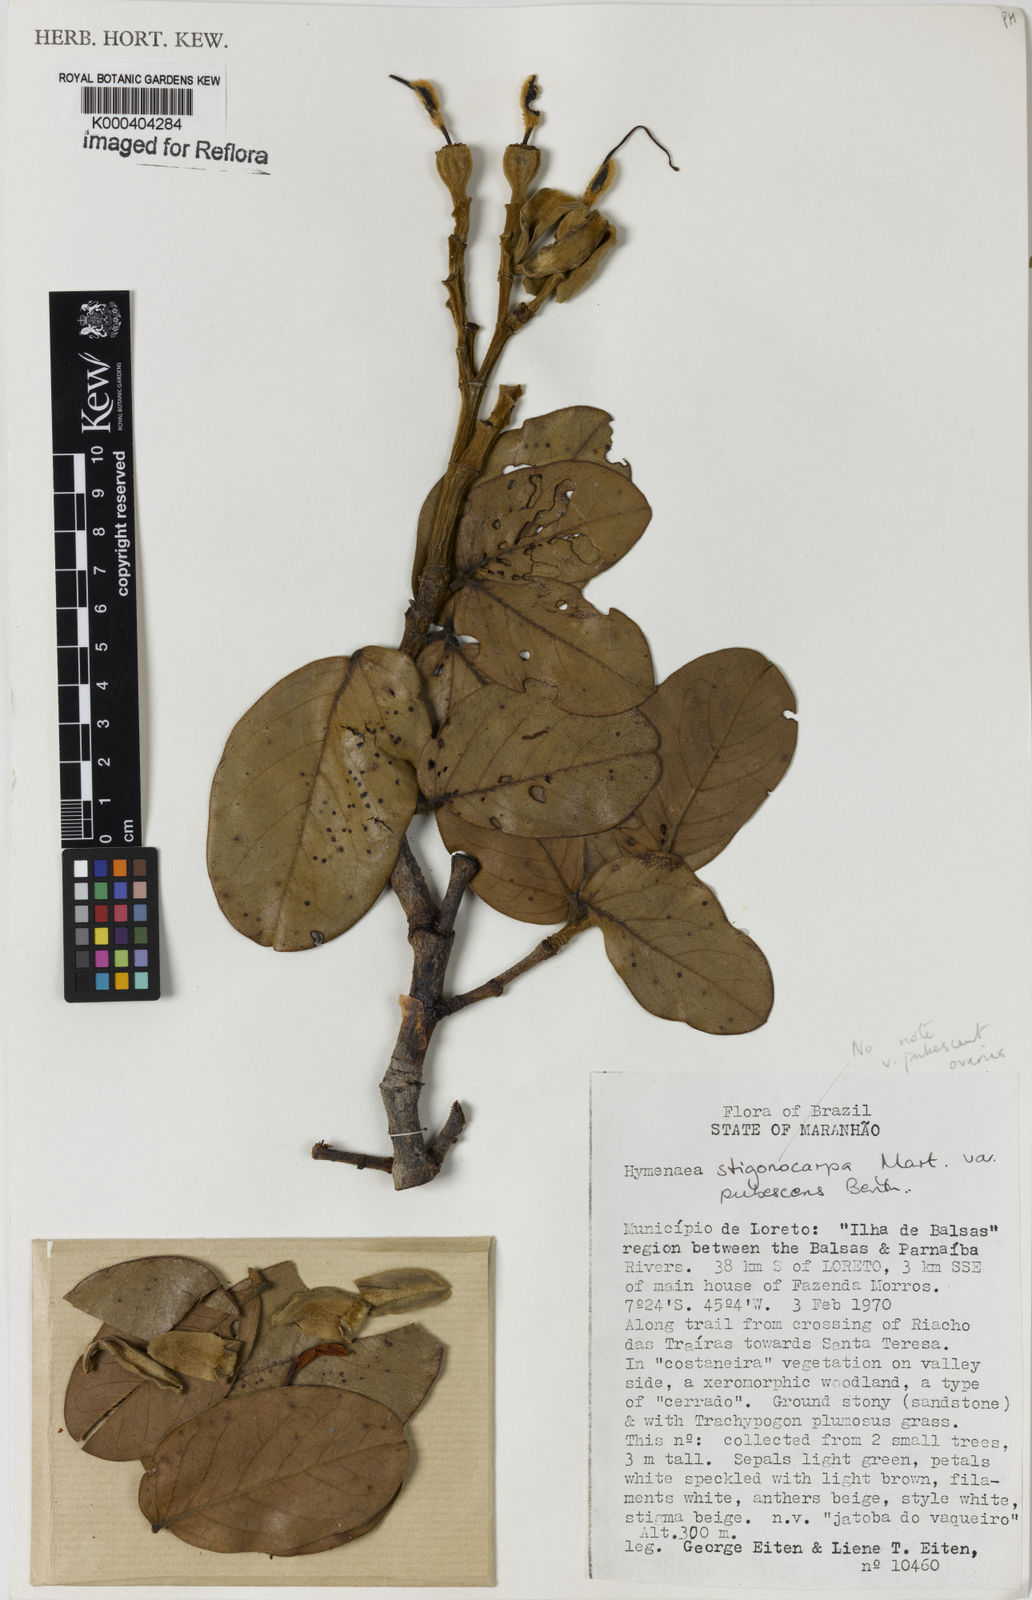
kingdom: Plantae
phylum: Tracheophyta
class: Magnoliopsida
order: Fabales
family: Fabaceae
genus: Hymenaea
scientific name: Hymenaea stigonocarpa
